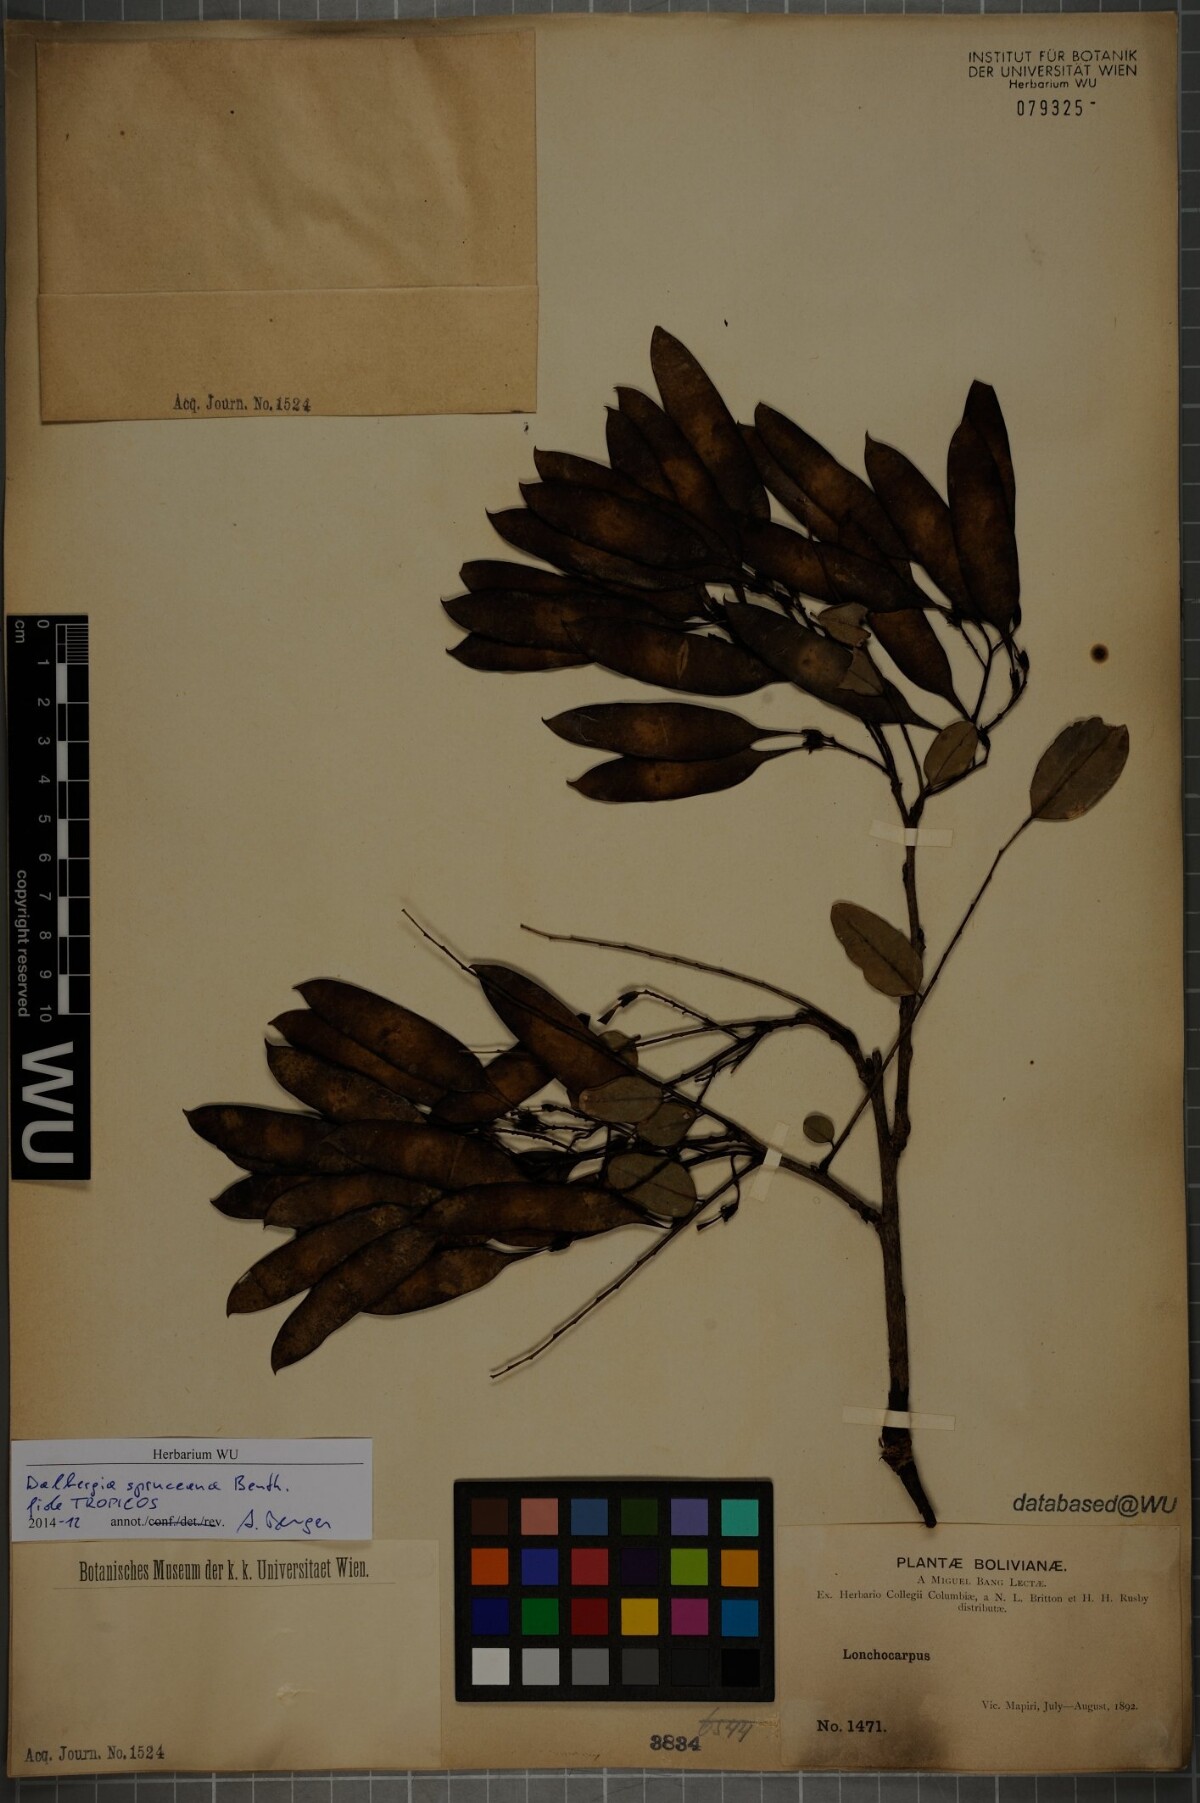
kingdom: Plantae
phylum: Tracheophyta
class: Magnoliopsida
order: Fabales
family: Fabaceae
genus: Dalbergia
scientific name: Dalbergia spruceana
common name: Amazon rosewood
